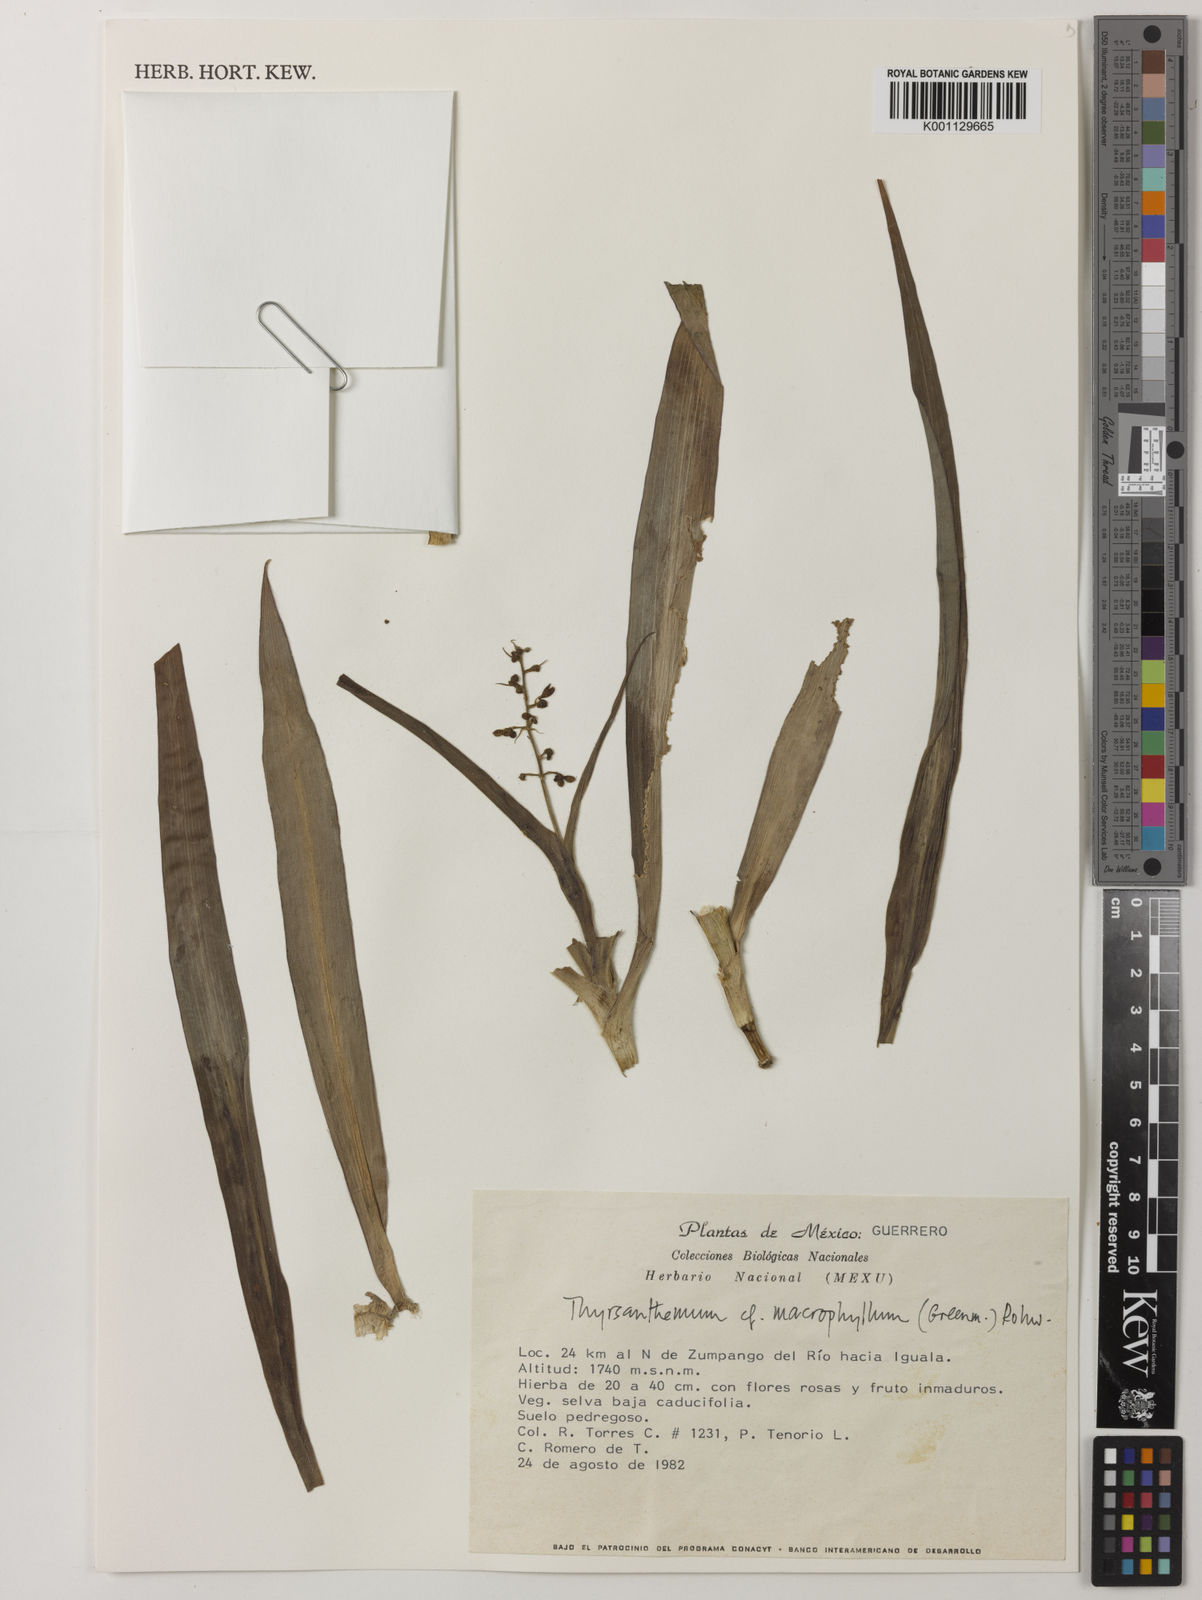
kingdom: Plantae
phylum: Tracheophyta
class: Liliopsida
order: Commelinales
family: Commelinaceae
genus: Thyrsanthemum
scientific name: Thyrsanthemum longifolium
